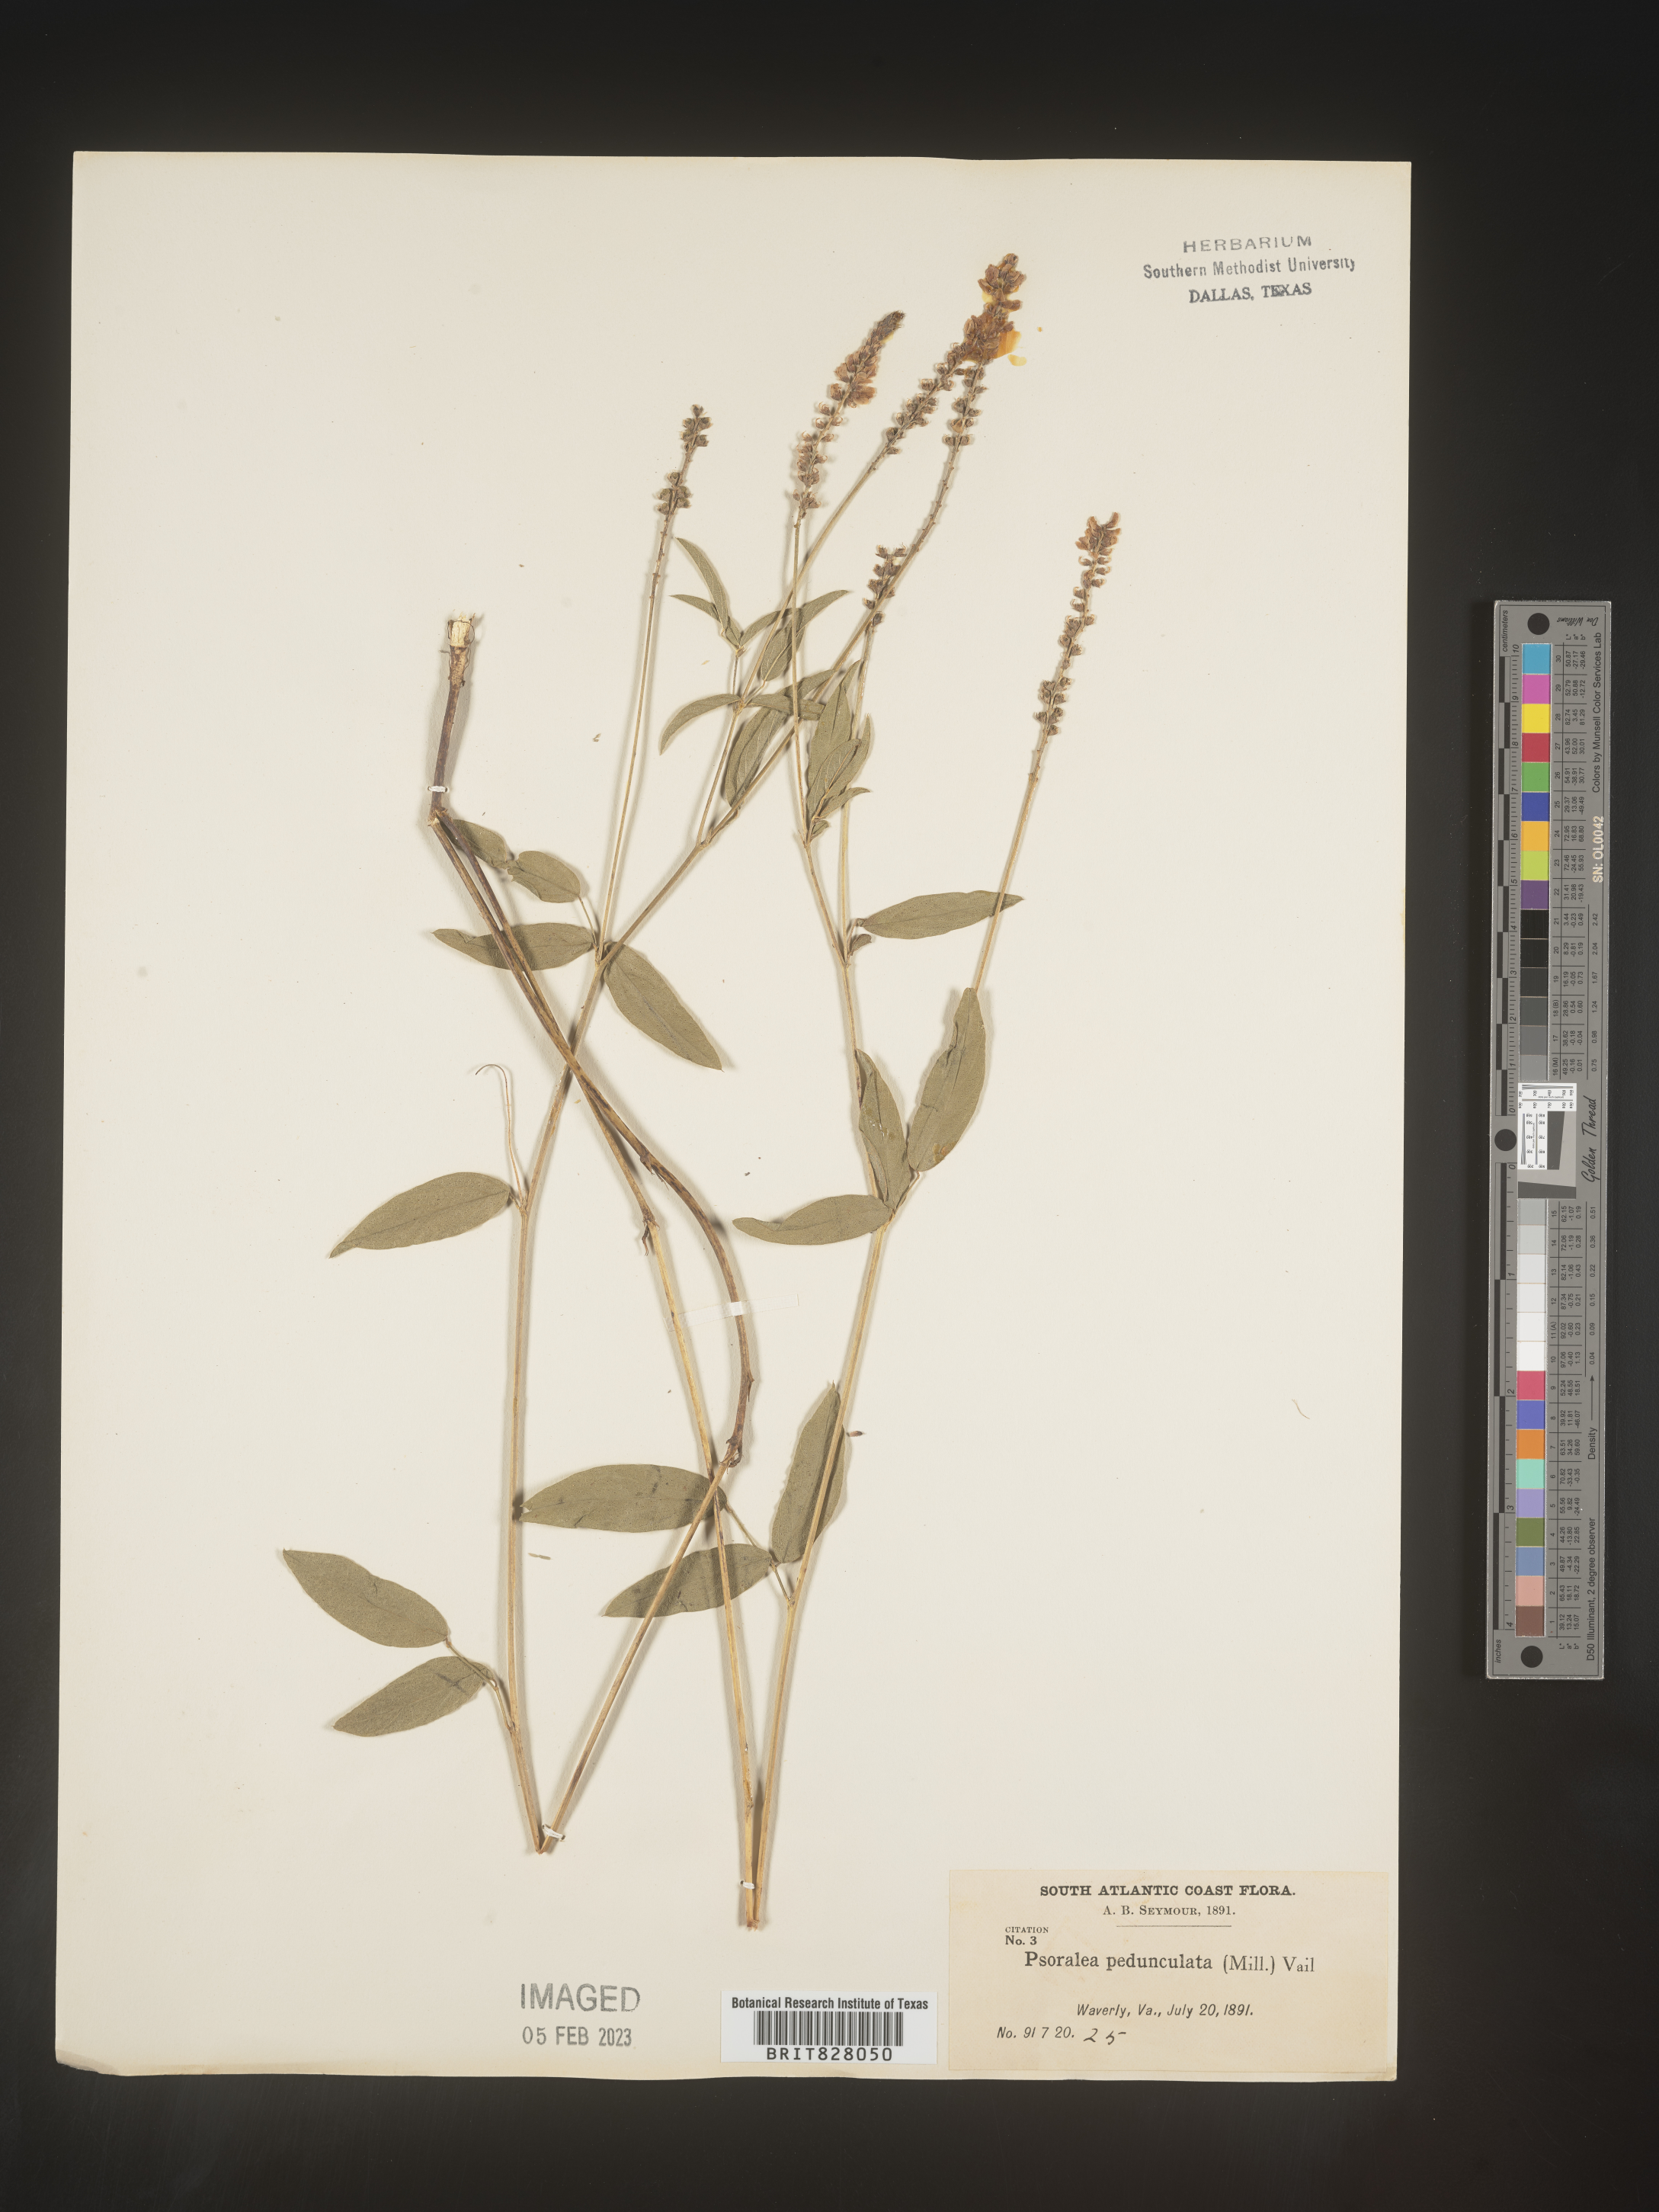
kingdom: Plantae
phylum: Tracheophyta
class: Magnoliopsida
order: Fabales
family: Fabaceae
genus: Orbexilum
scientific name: Orbexilum pedunculatum
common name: Sampson's snakeroot
